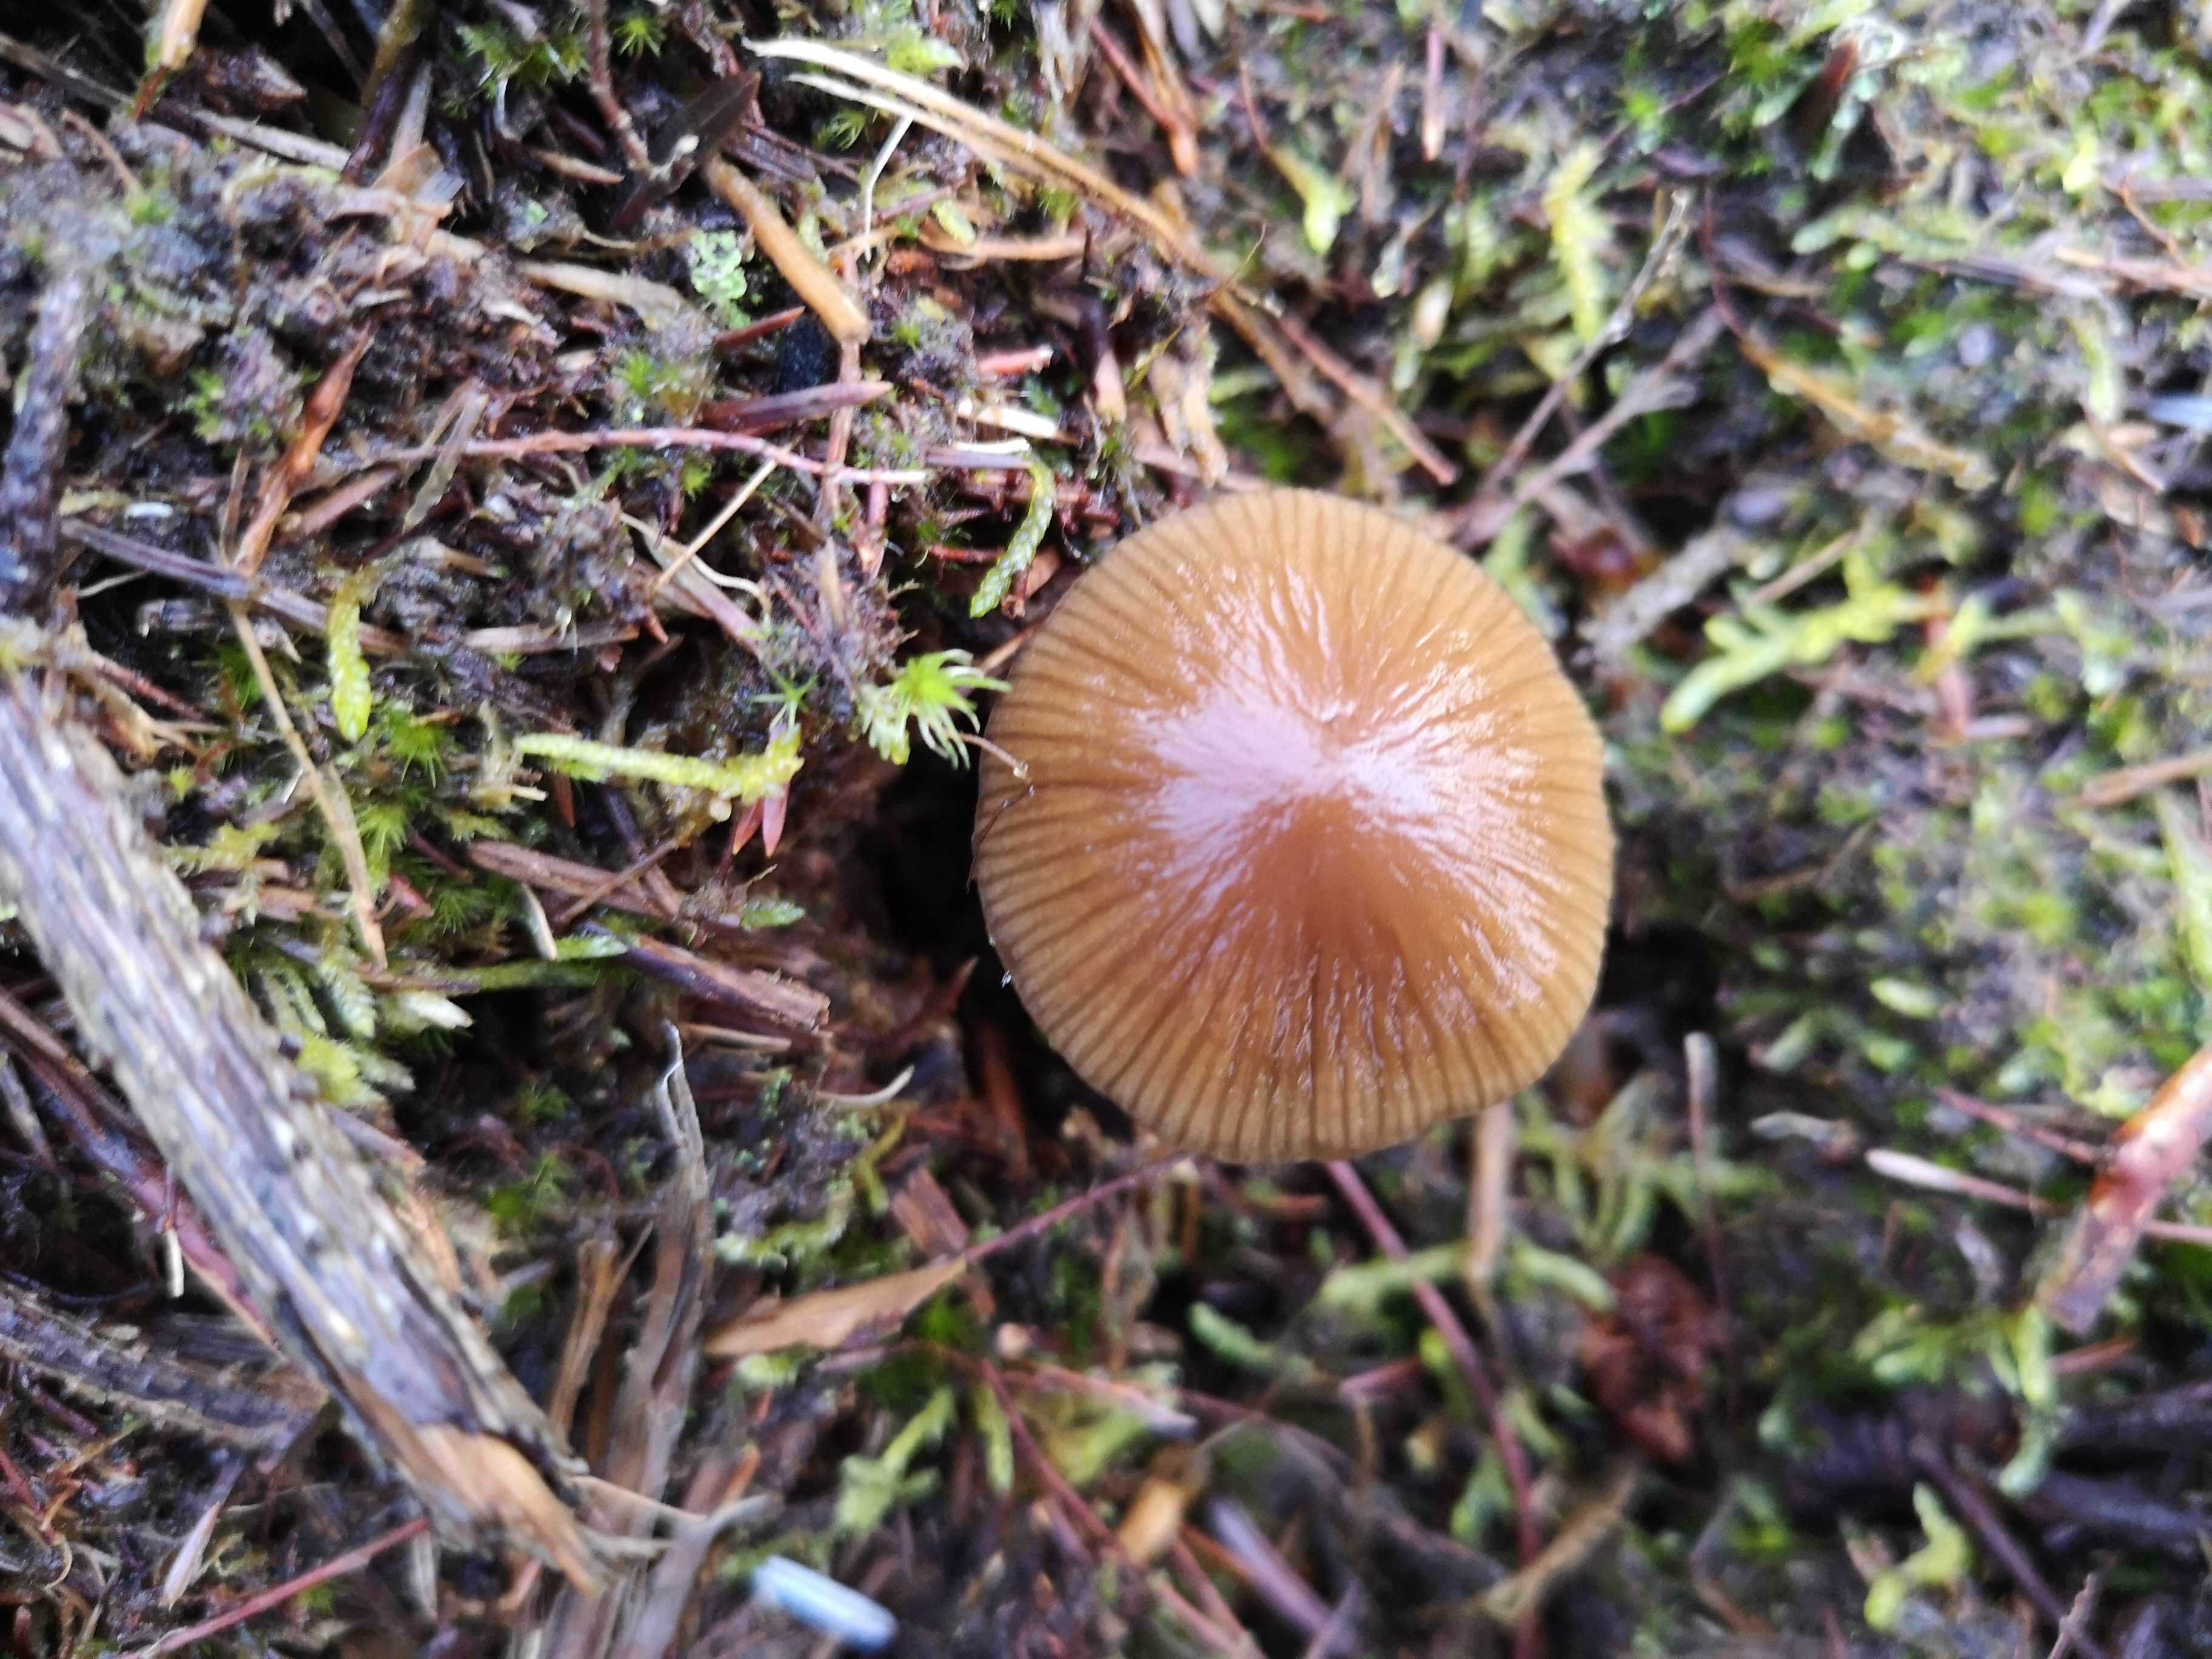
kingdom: Fungi
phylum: Basidiomycota
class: Agaricomycetes
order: Agaricales
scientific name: Agaricales
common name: champignonordenen
